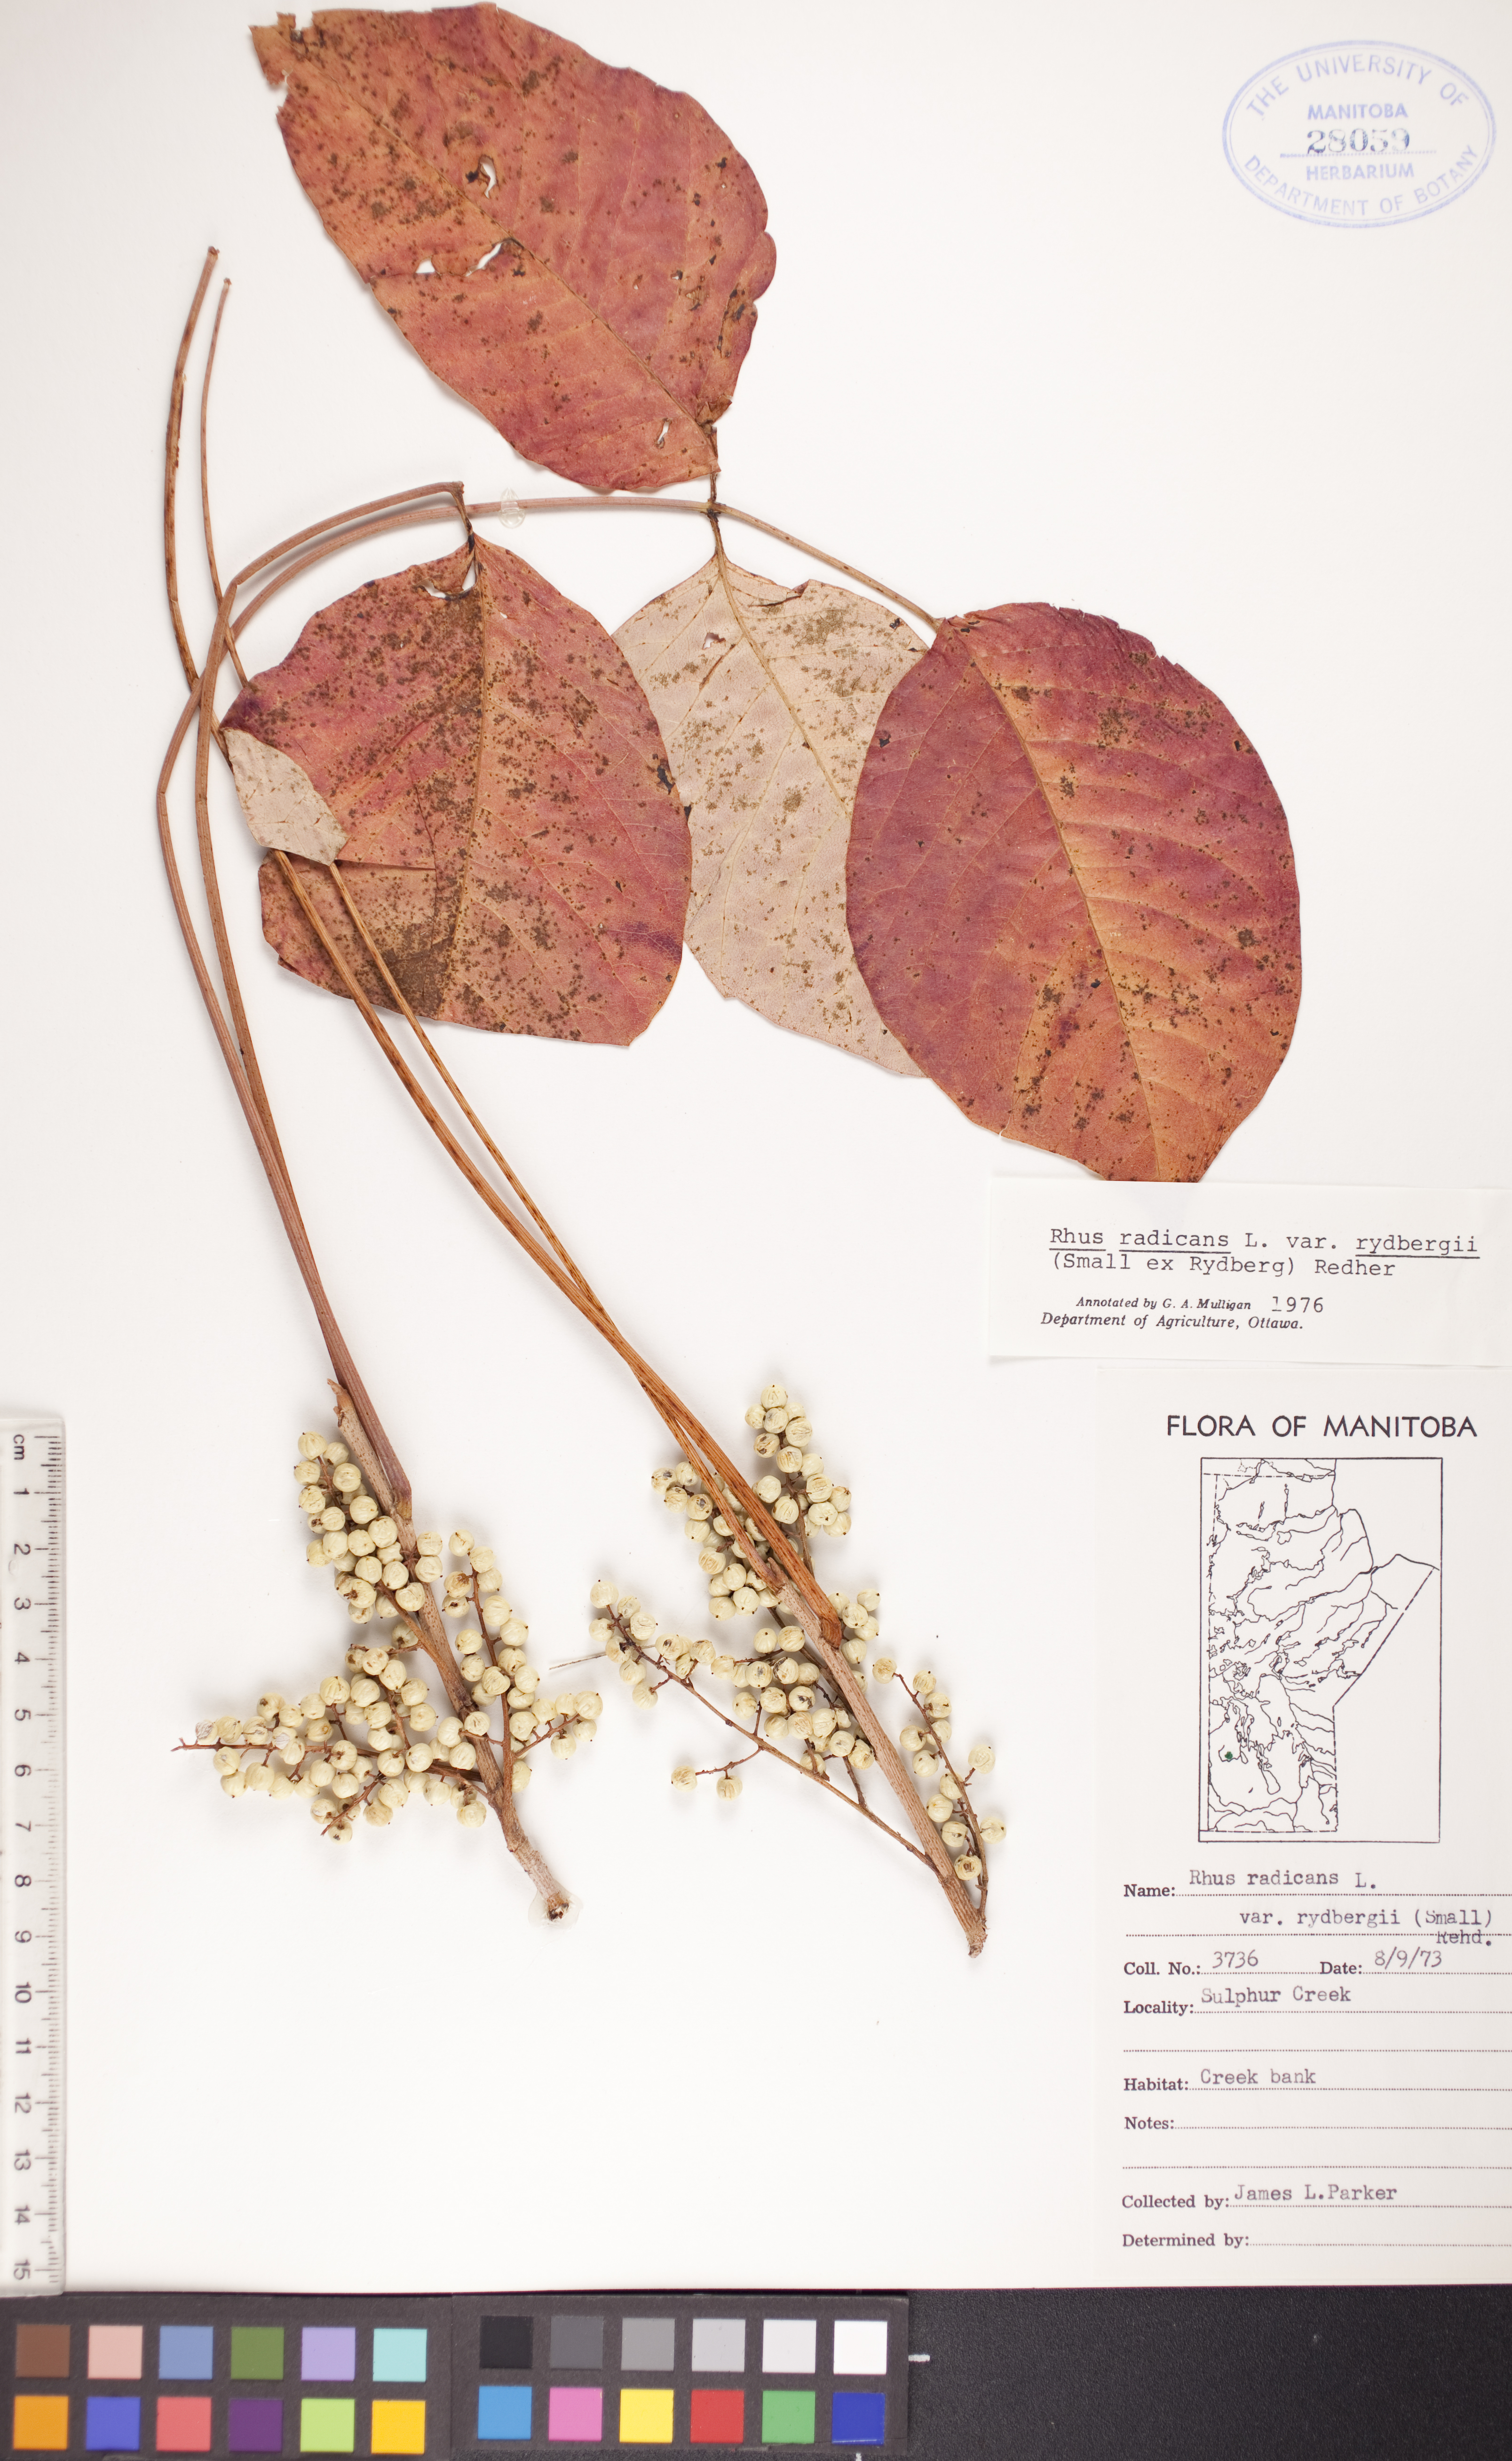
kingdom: Plantae
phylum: Tracheophyta
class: Magnoliopsida
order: Sapindales
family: Anacardiaceae
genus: Toxicodendron
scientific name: Toxicodendron rydbergii
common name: Rydberg's poison-ivy
